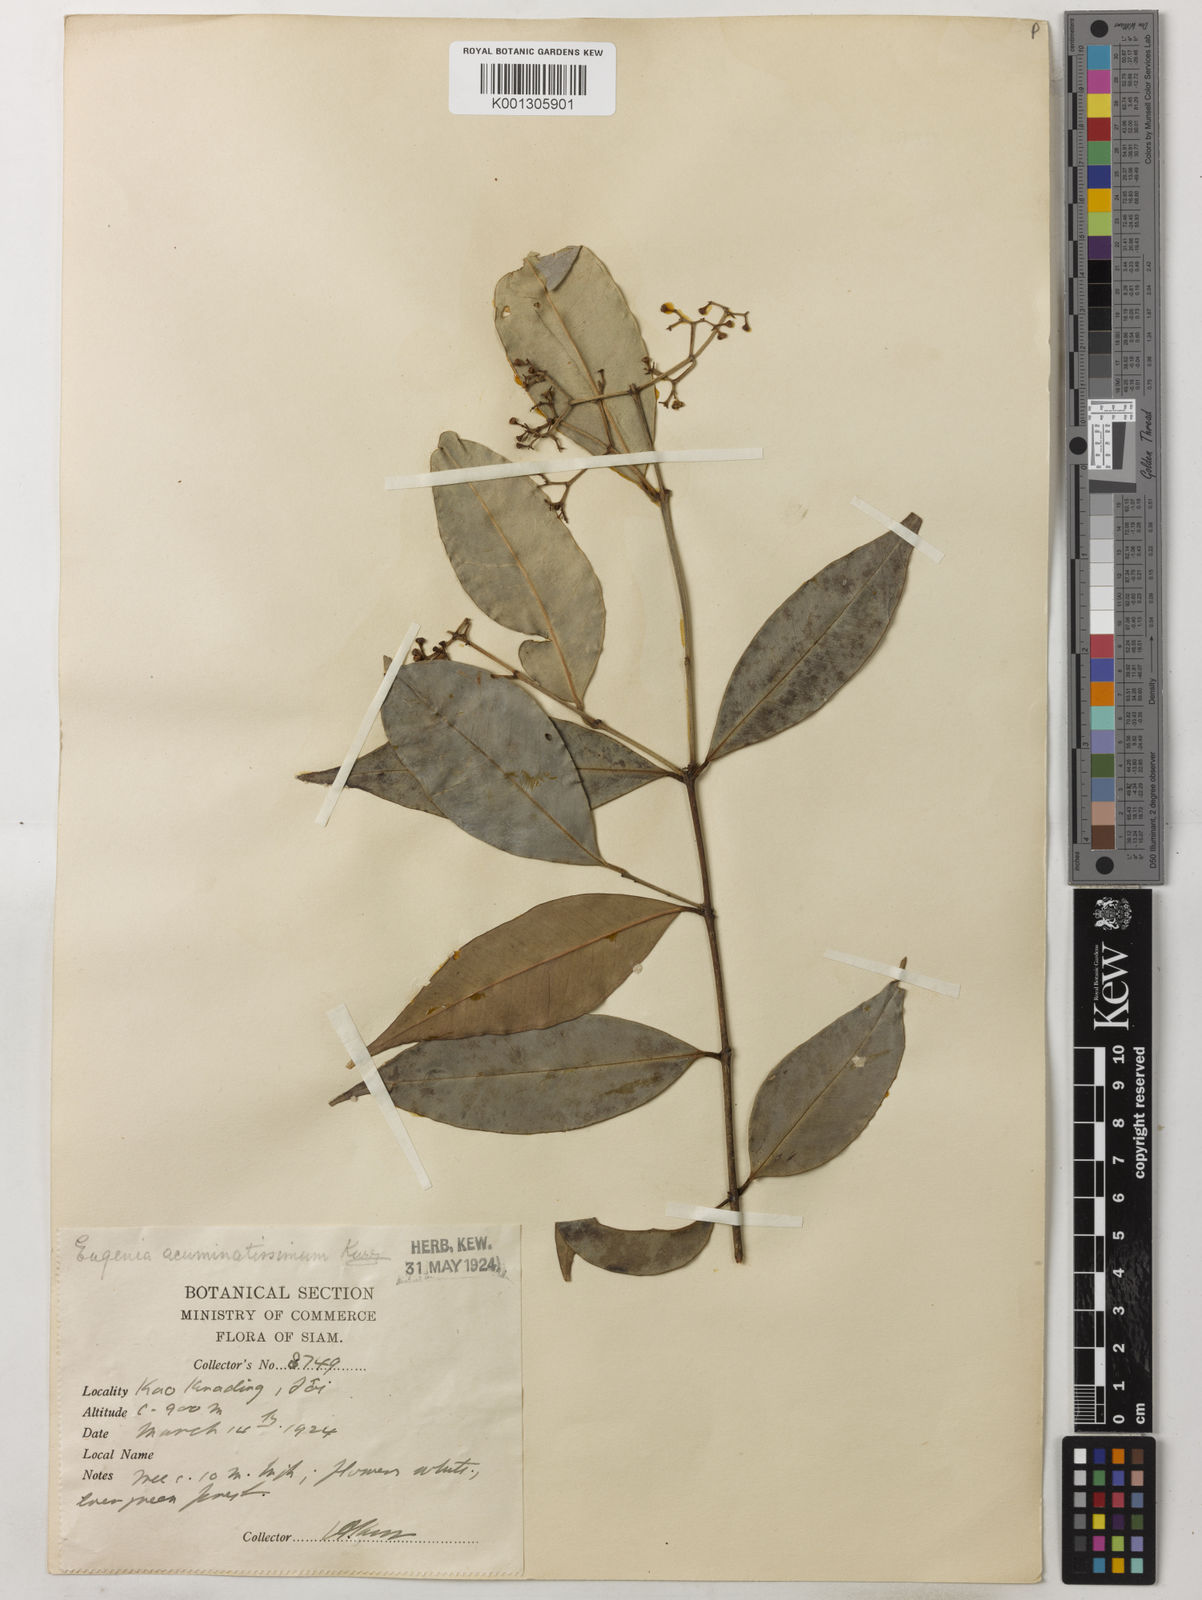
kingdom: Plantae
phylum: Tracheophyta
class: Magnoliopsida
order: Myrtales
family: Myrtaceae
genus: Syzygium
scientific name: Syzygium acuminatissimum
